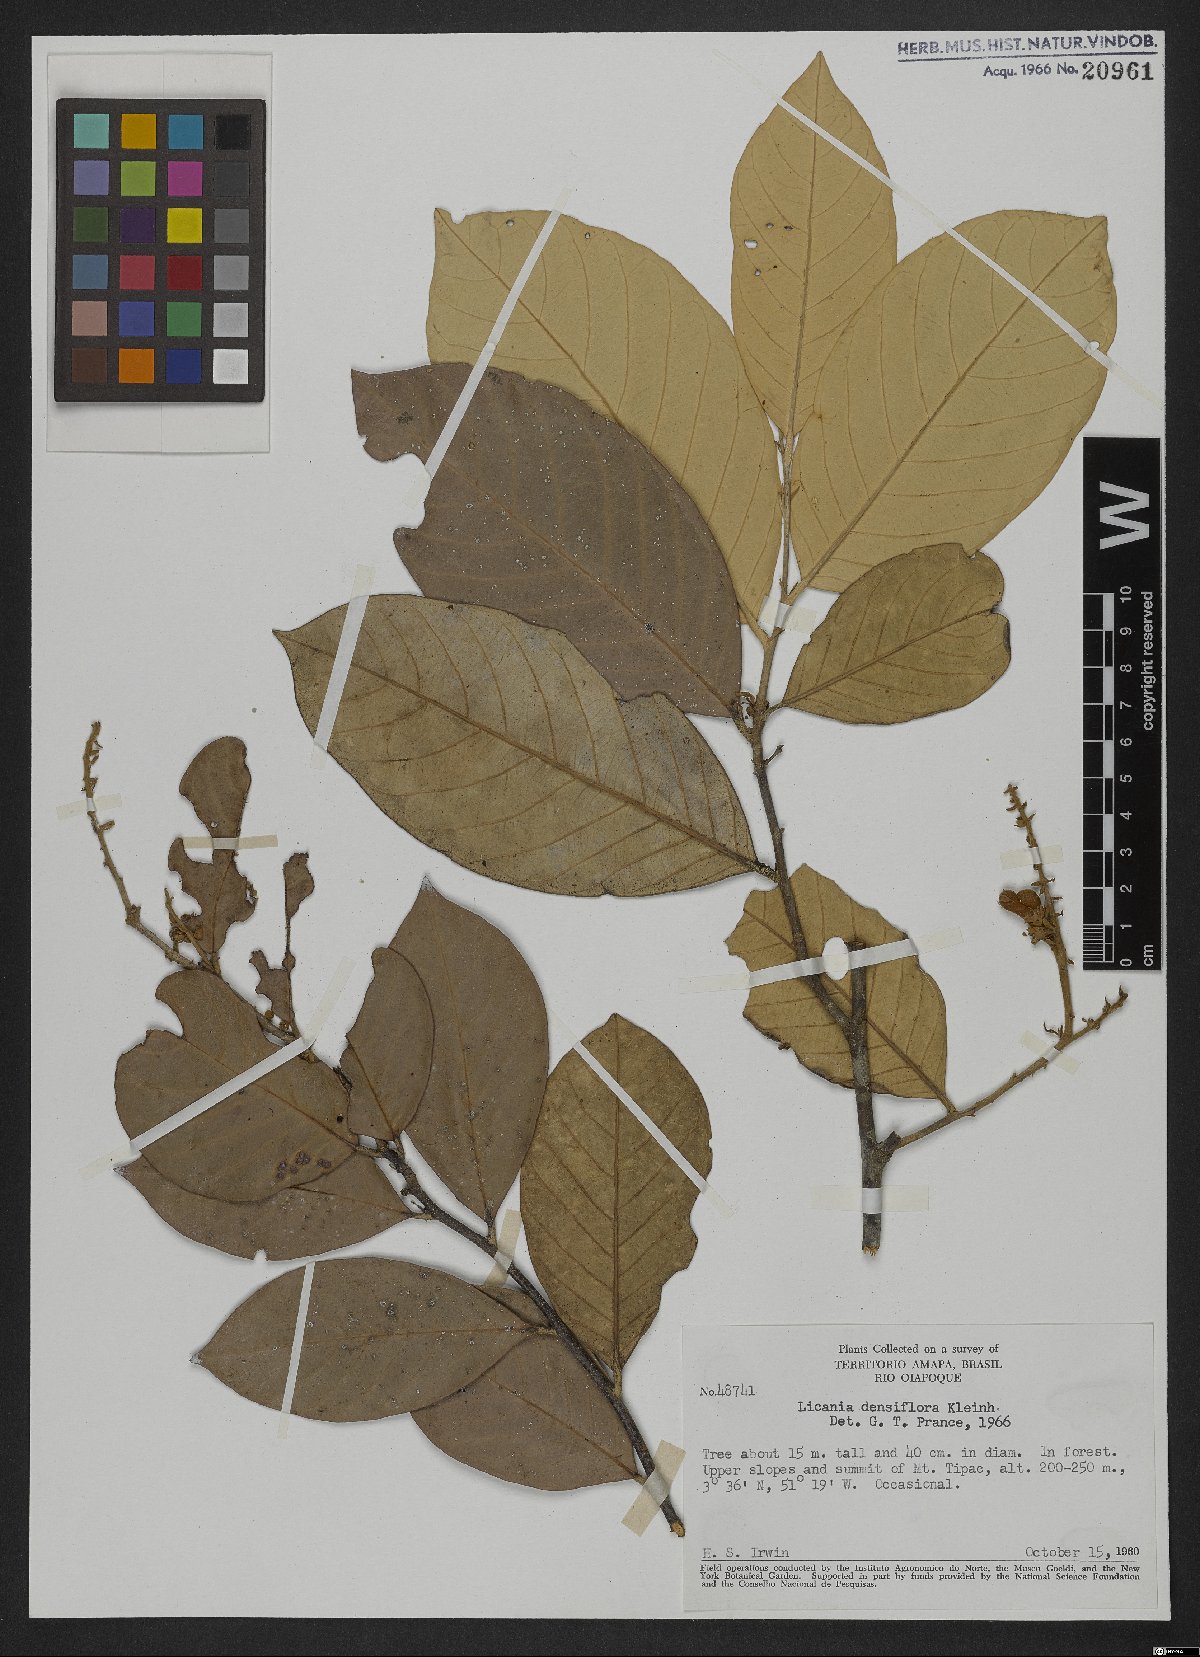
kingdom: Plantae
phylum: Tracheophyta
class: Magnoliopsida
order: Malpighiales
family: Chrysobalanaceae
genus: Licania
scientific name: Licania densiflora
